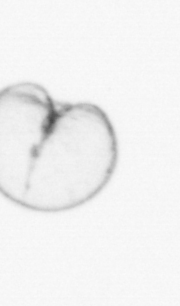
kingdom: Chromista
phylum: Myzozoa
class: Dinophyceae
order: Noctilucales
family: Noctilucaceae
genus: Noctiluca
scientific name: Noctiluca scintillans
